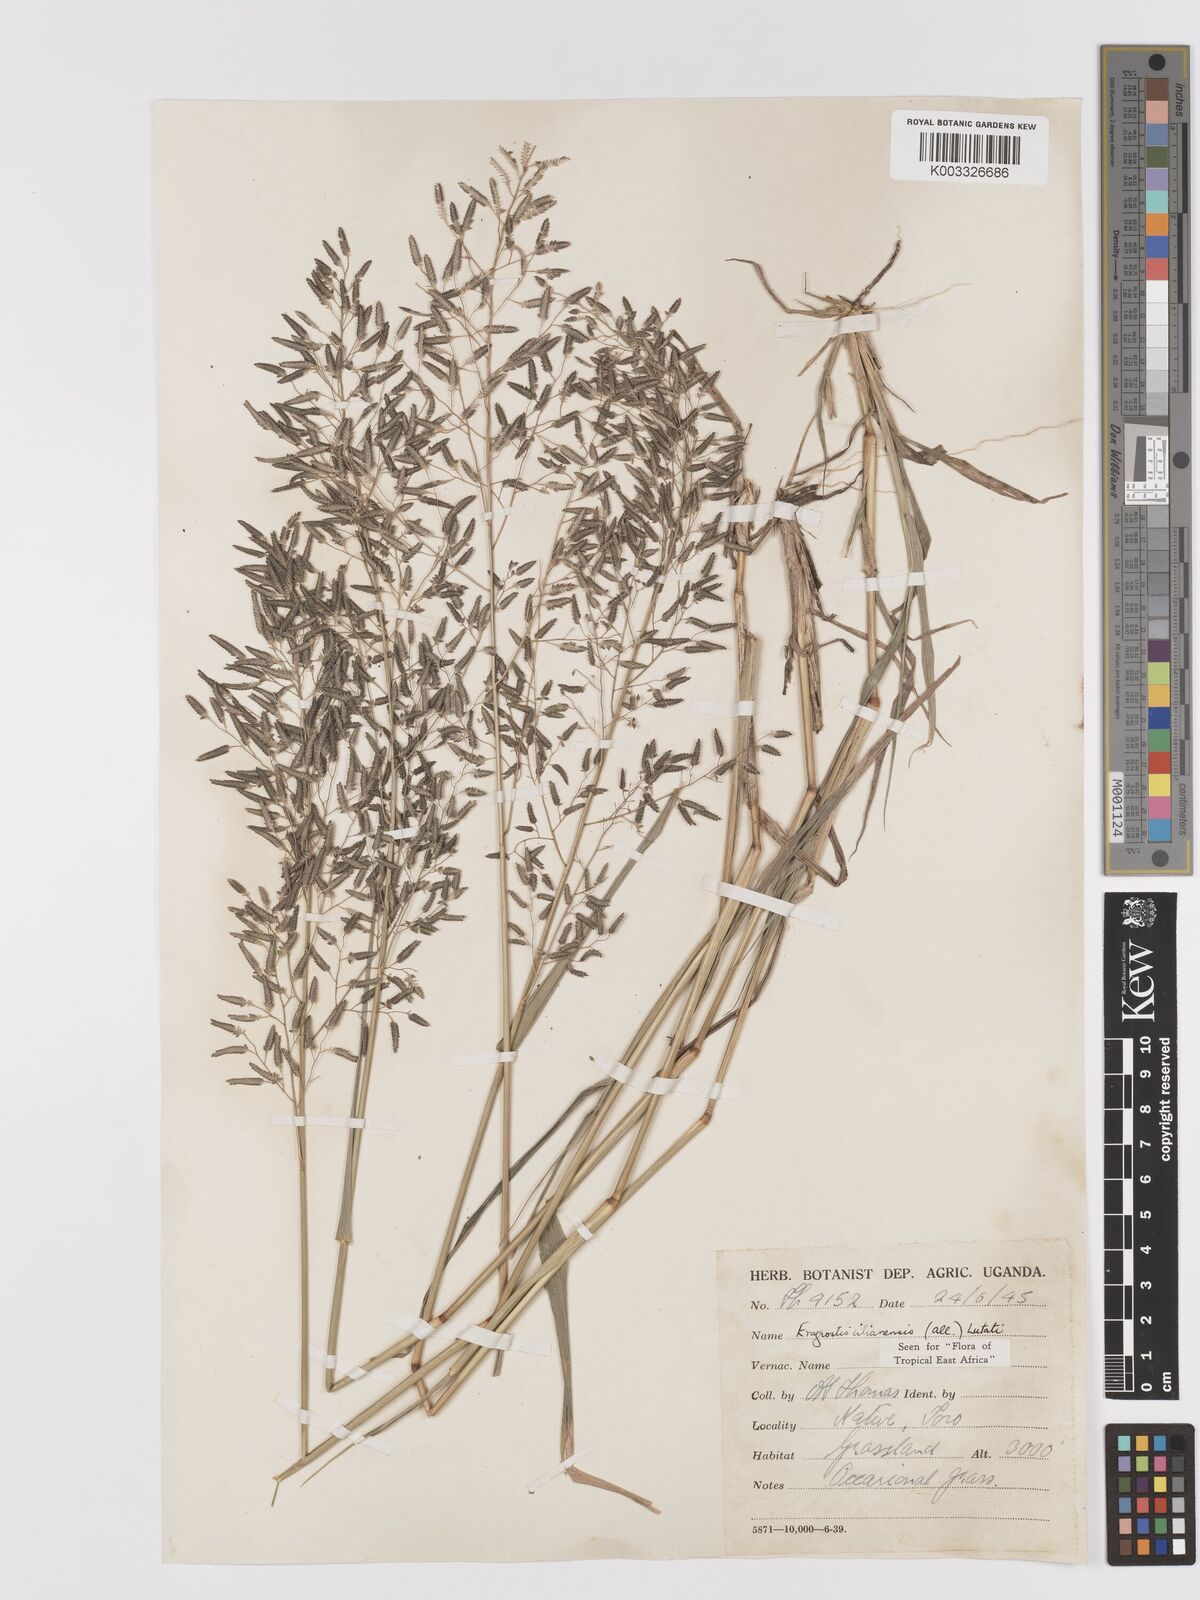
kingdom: Plantae
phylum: Tracheophyta
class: Liliopsida
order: Poales
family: Poaceae
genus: Eragrostis
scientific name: Eragrostis cilianensis
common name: Stinkgrass
